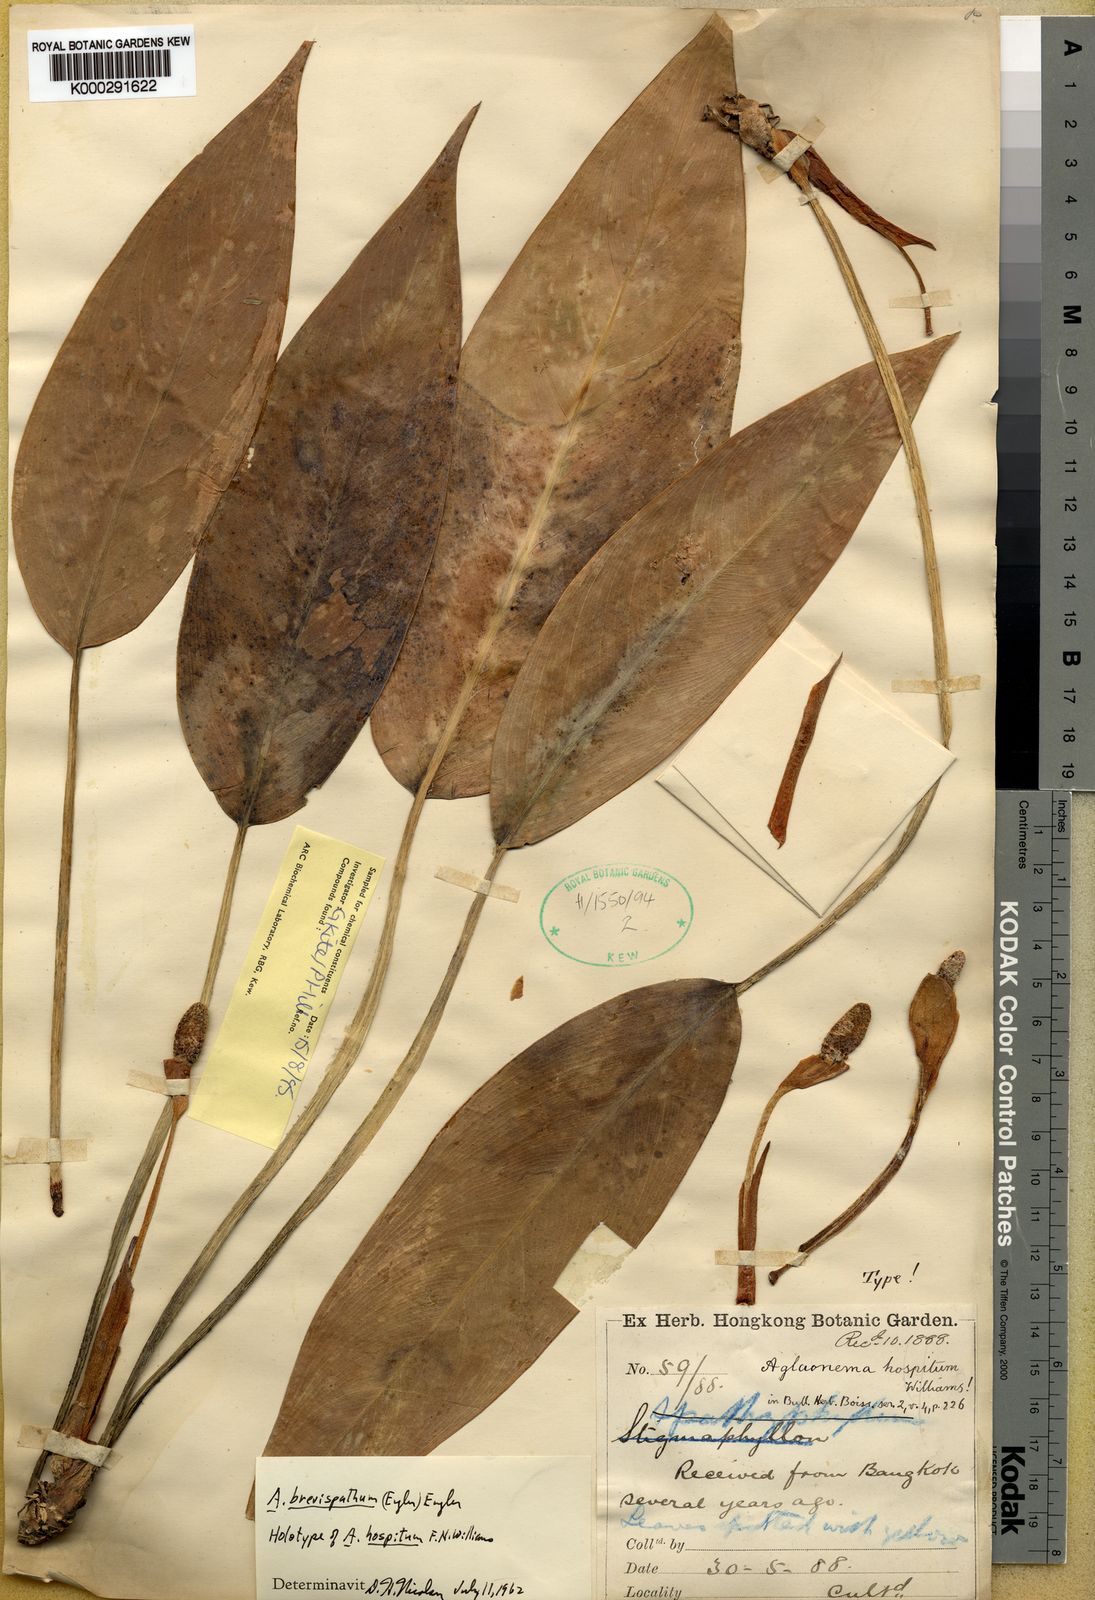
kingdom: Plantae
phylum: Tracheophyta
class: Liliopsida
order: Alismatales
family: Araceae
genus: Aglaonema
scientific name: Aglaonema brevispathum
